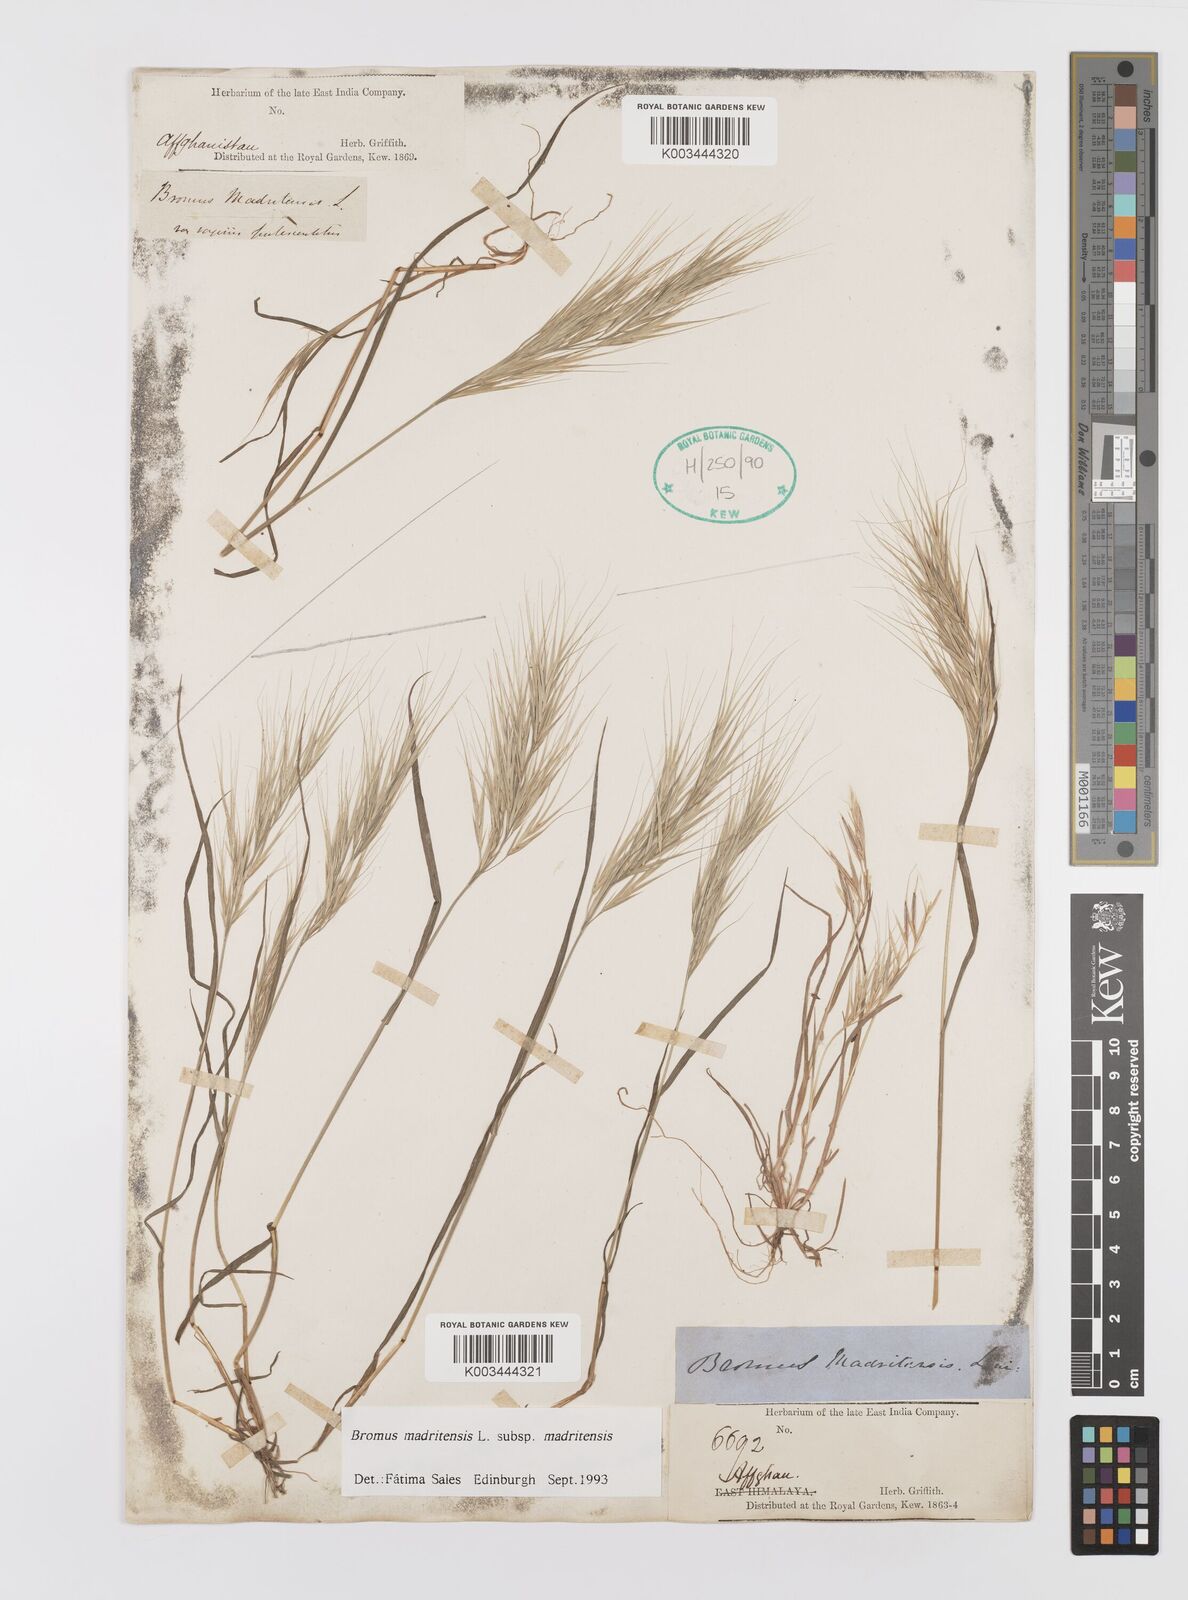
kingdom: Plantae
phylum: Tracheophyta
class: Liliopsida
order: Poales
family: Poaceae
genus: Bromus
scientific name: Bromus madritensis
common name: Compact brome
